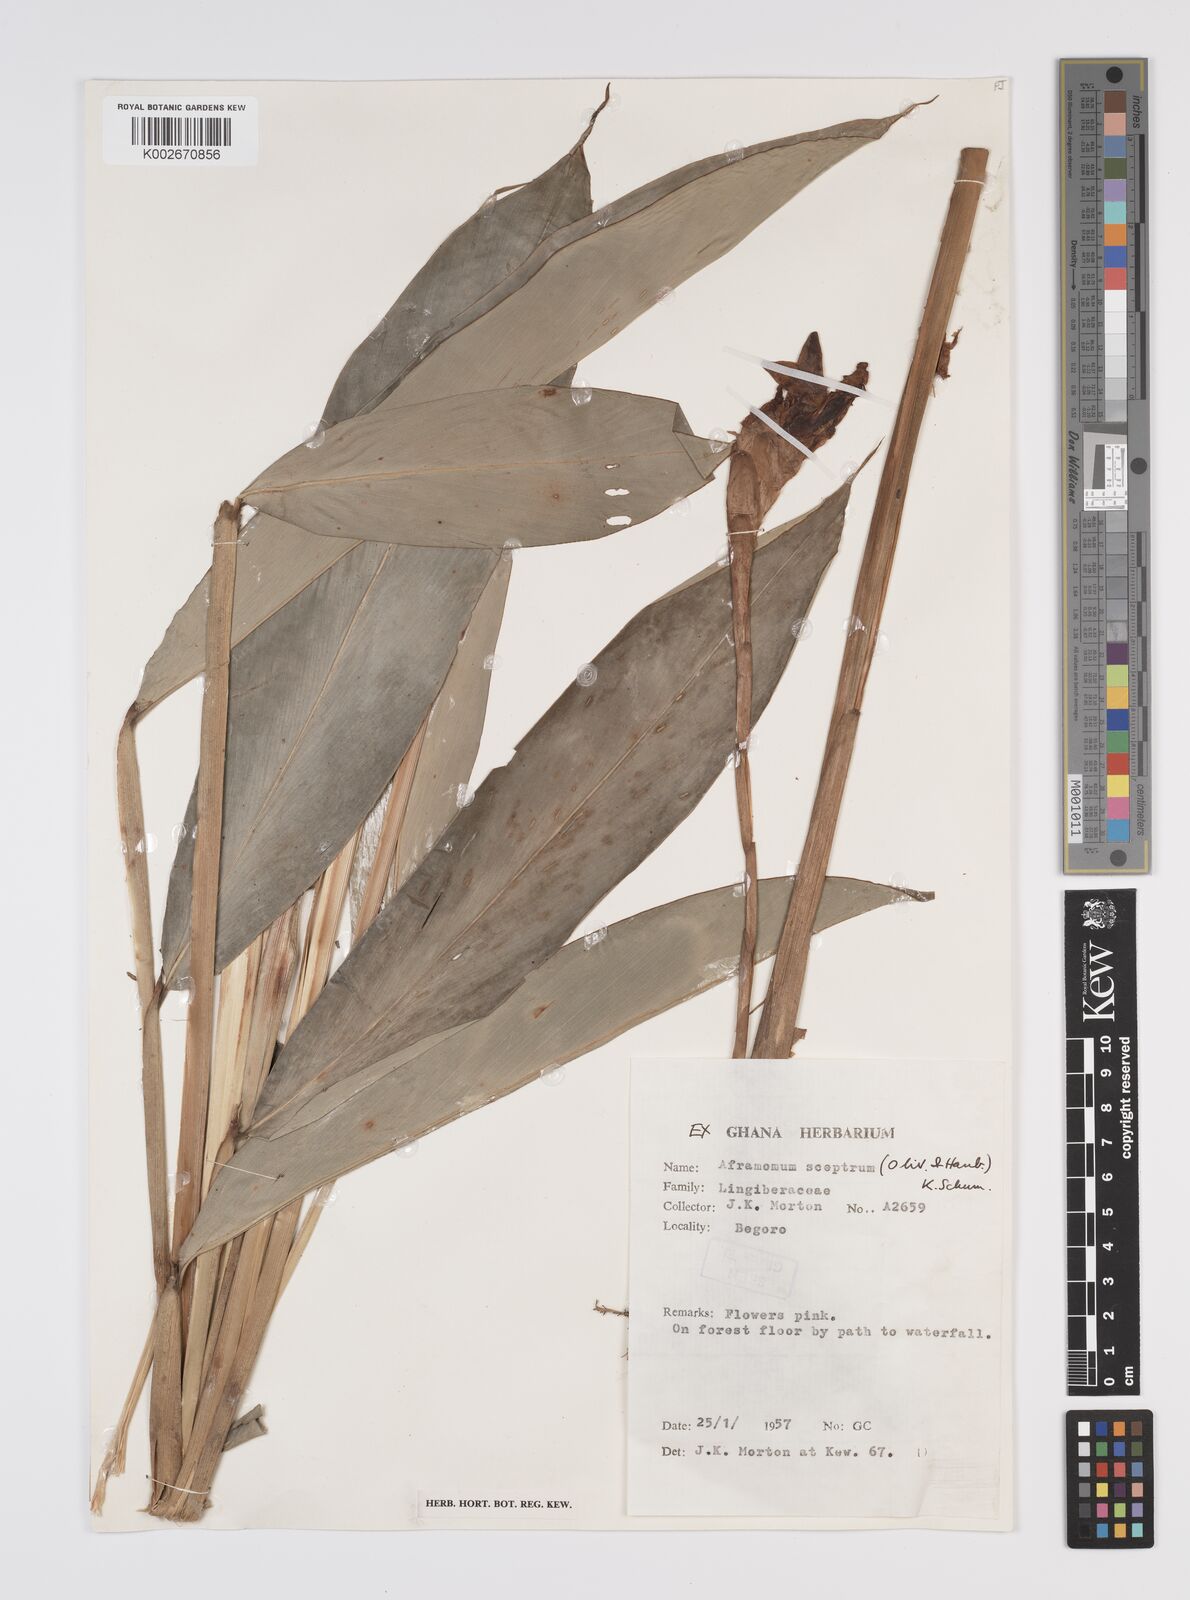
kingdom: Plantae
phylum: Tracheophyta
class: Liliopsida
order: Zingiberales
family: Zingiberaceae
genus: Aframomum
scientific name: Aframomum cereum
